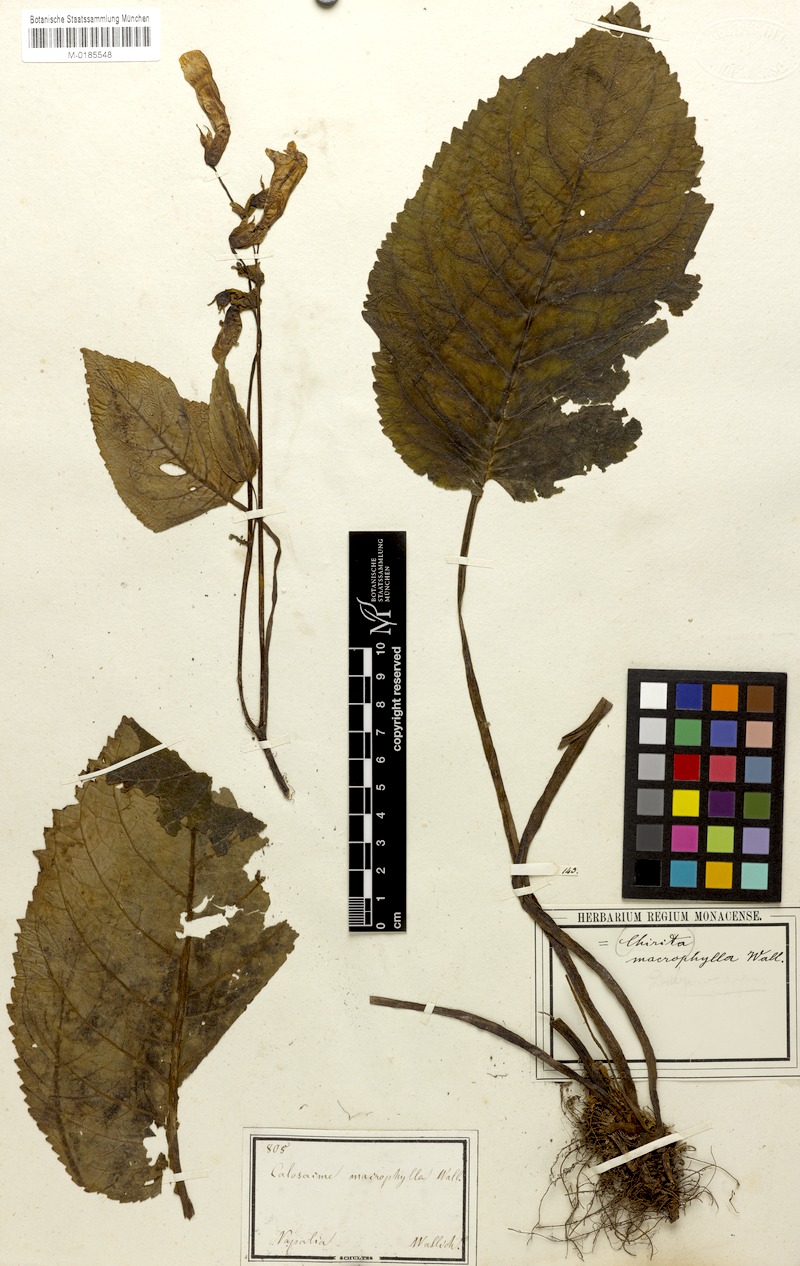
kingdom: Plantae
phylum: Tracheophyta
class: Magnoliopsida
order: Lamiales
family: Gesneriaceae
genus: Henckelia
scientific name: Henckelia grandifolia
